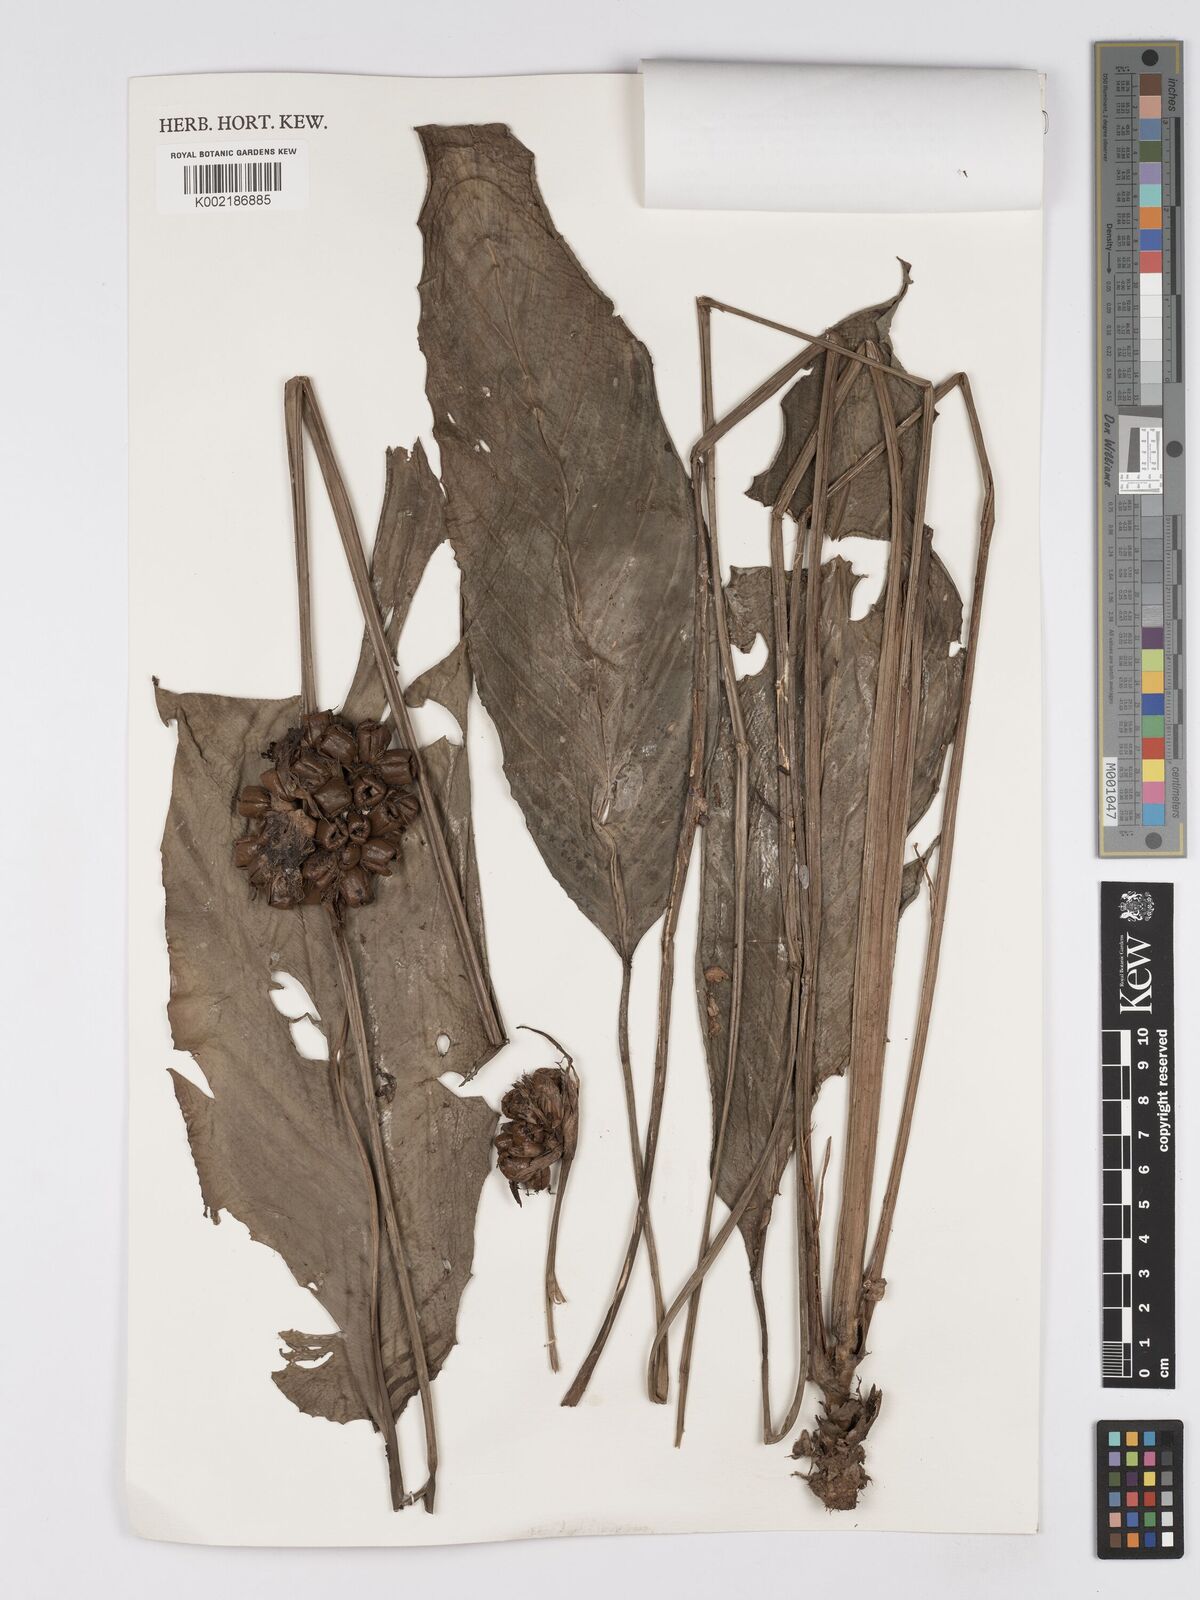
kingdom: Plantae
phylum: Tracheophyta
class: Liliopsida
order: Zingiberales
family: Marantaceae
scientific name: Marantaceae
